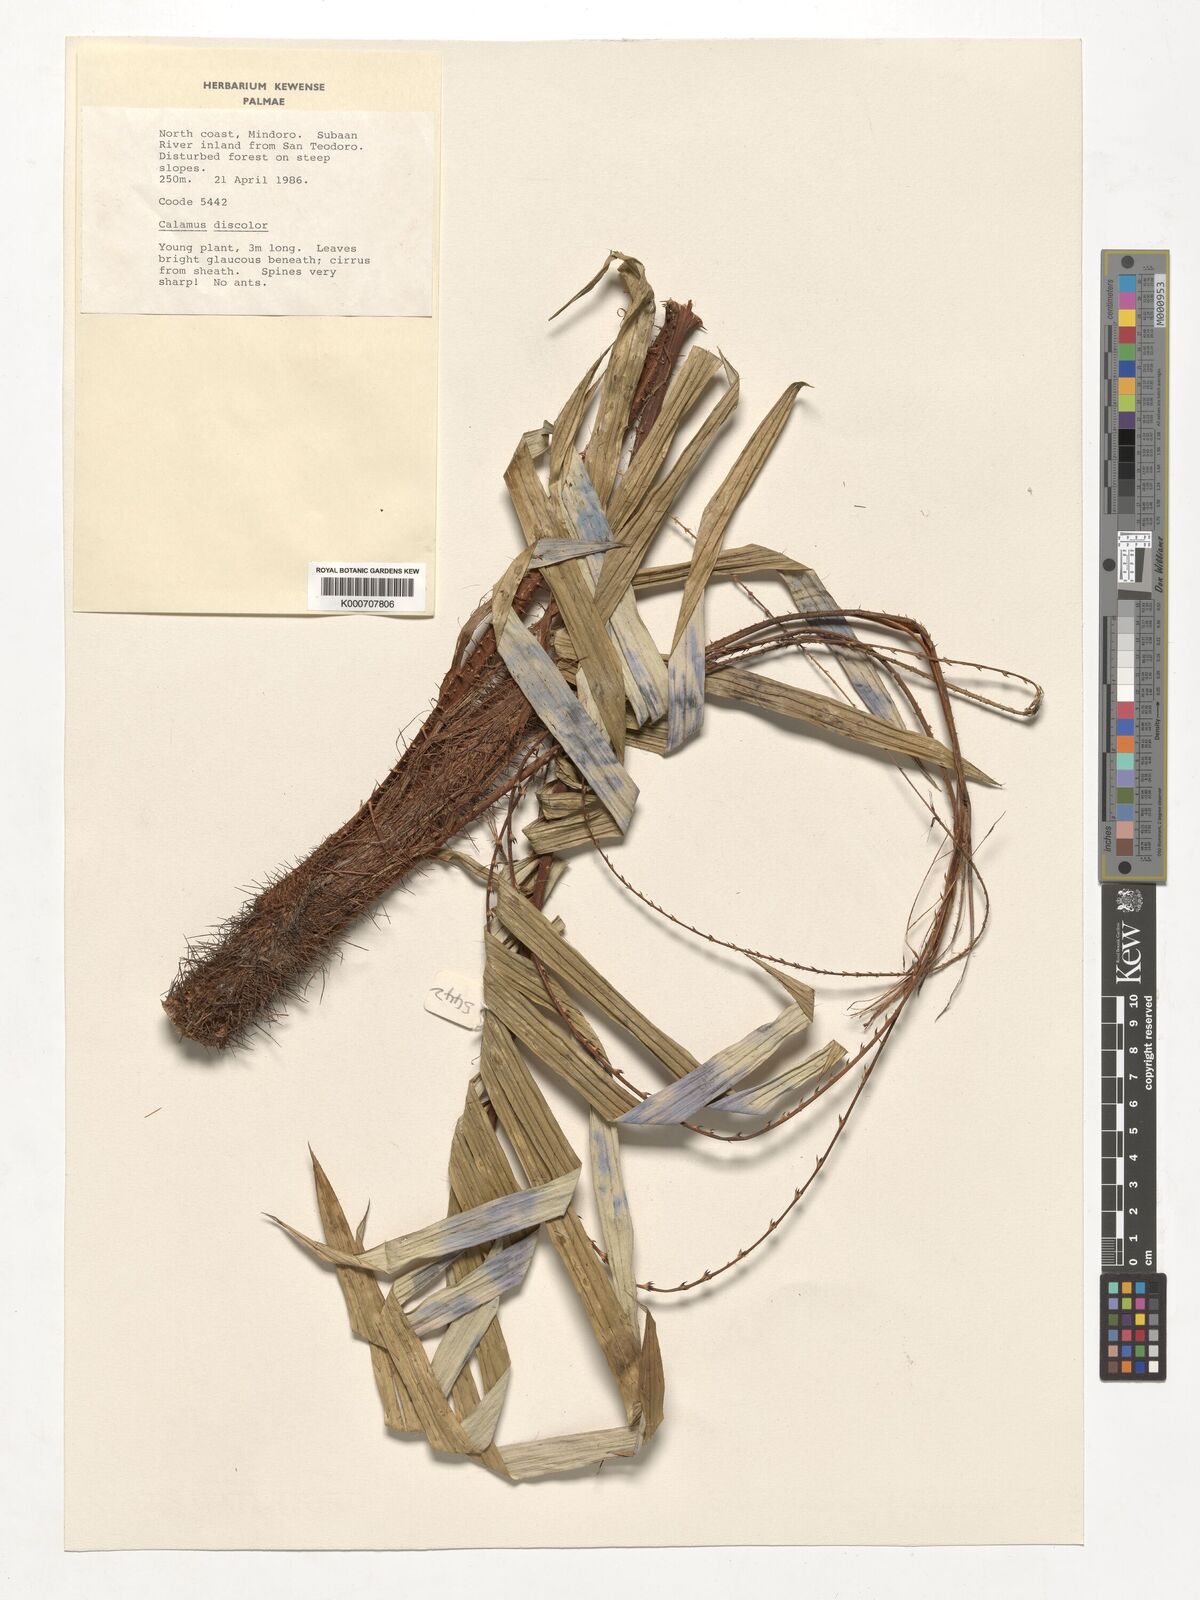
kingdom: Plantae
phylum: Tracheophyta
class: Liliopsida
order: Arecales
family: Arecaceae
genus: Calamus
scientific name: Calamus discolor
